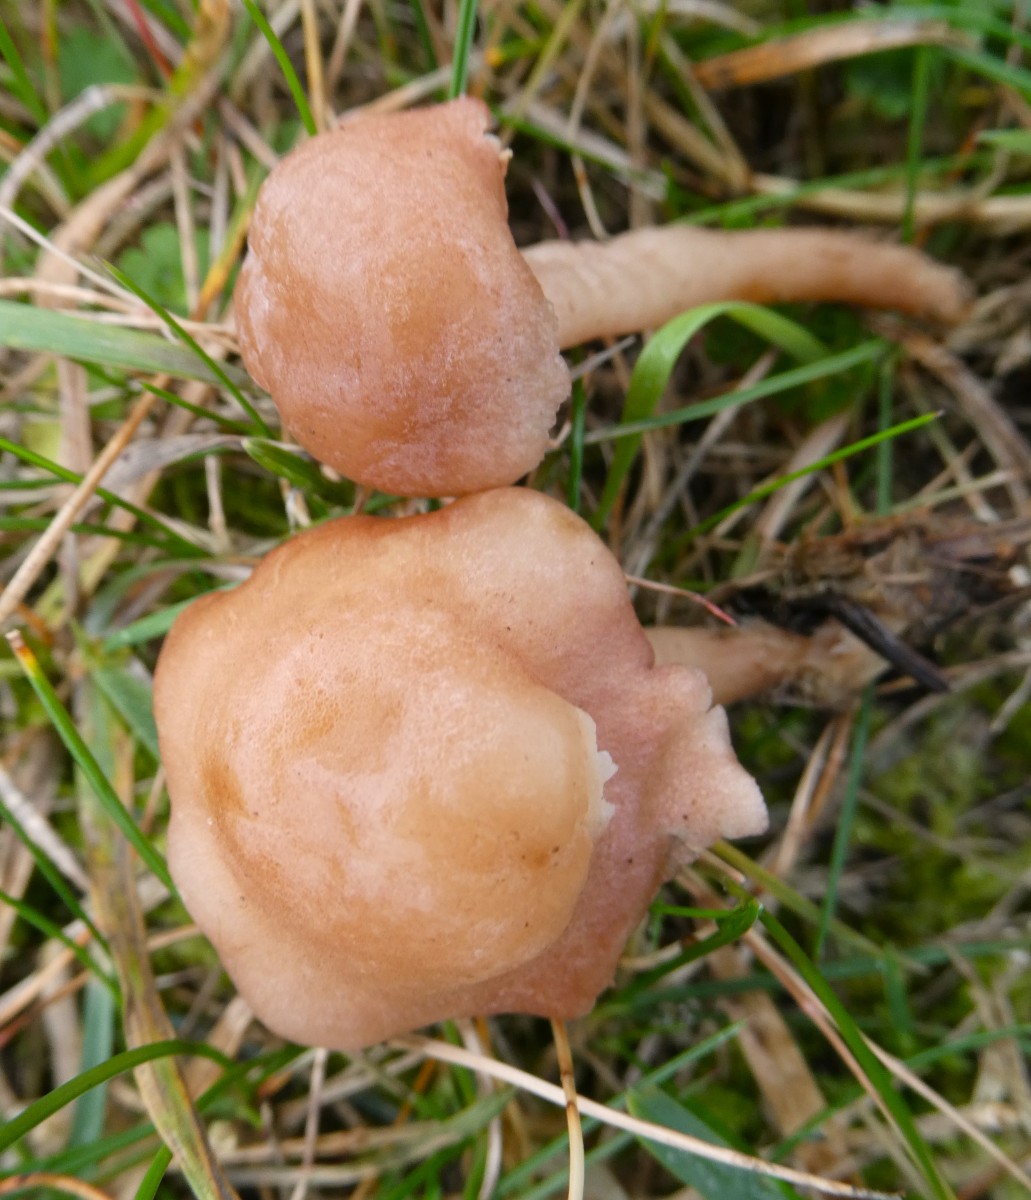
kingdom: Fungi
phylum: Basidiomycota
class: Agaricomycetes
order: Agaricales
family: Lyophyllaceae
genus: Calocybe
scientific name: Calocybe carnea
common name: rosa fagerhat
